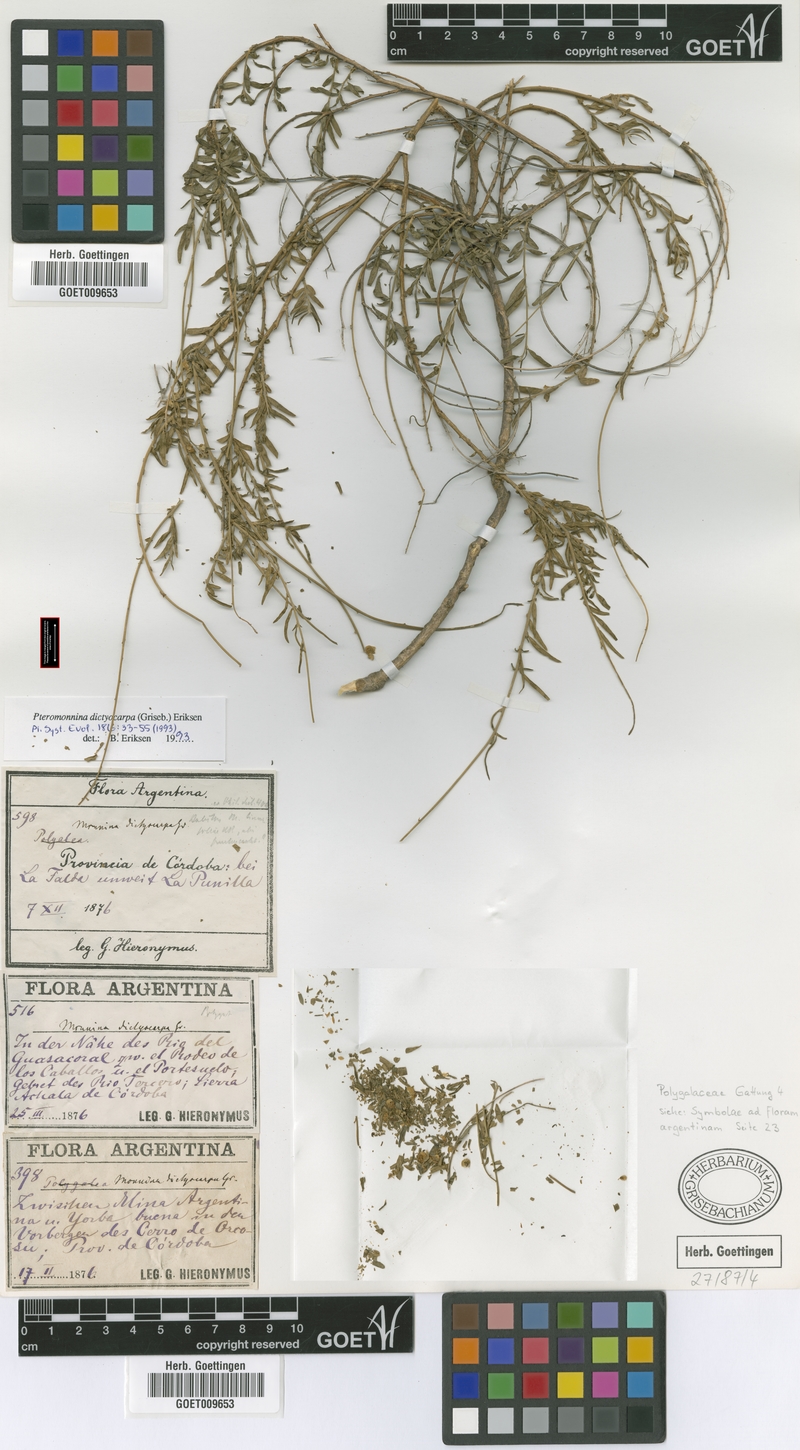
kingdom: Plantae
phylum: Tracheophyta
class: Magnoliopsida
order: Fabales
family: Polygalaceae
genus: Monnina
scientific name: Monnina dictyocarpa
